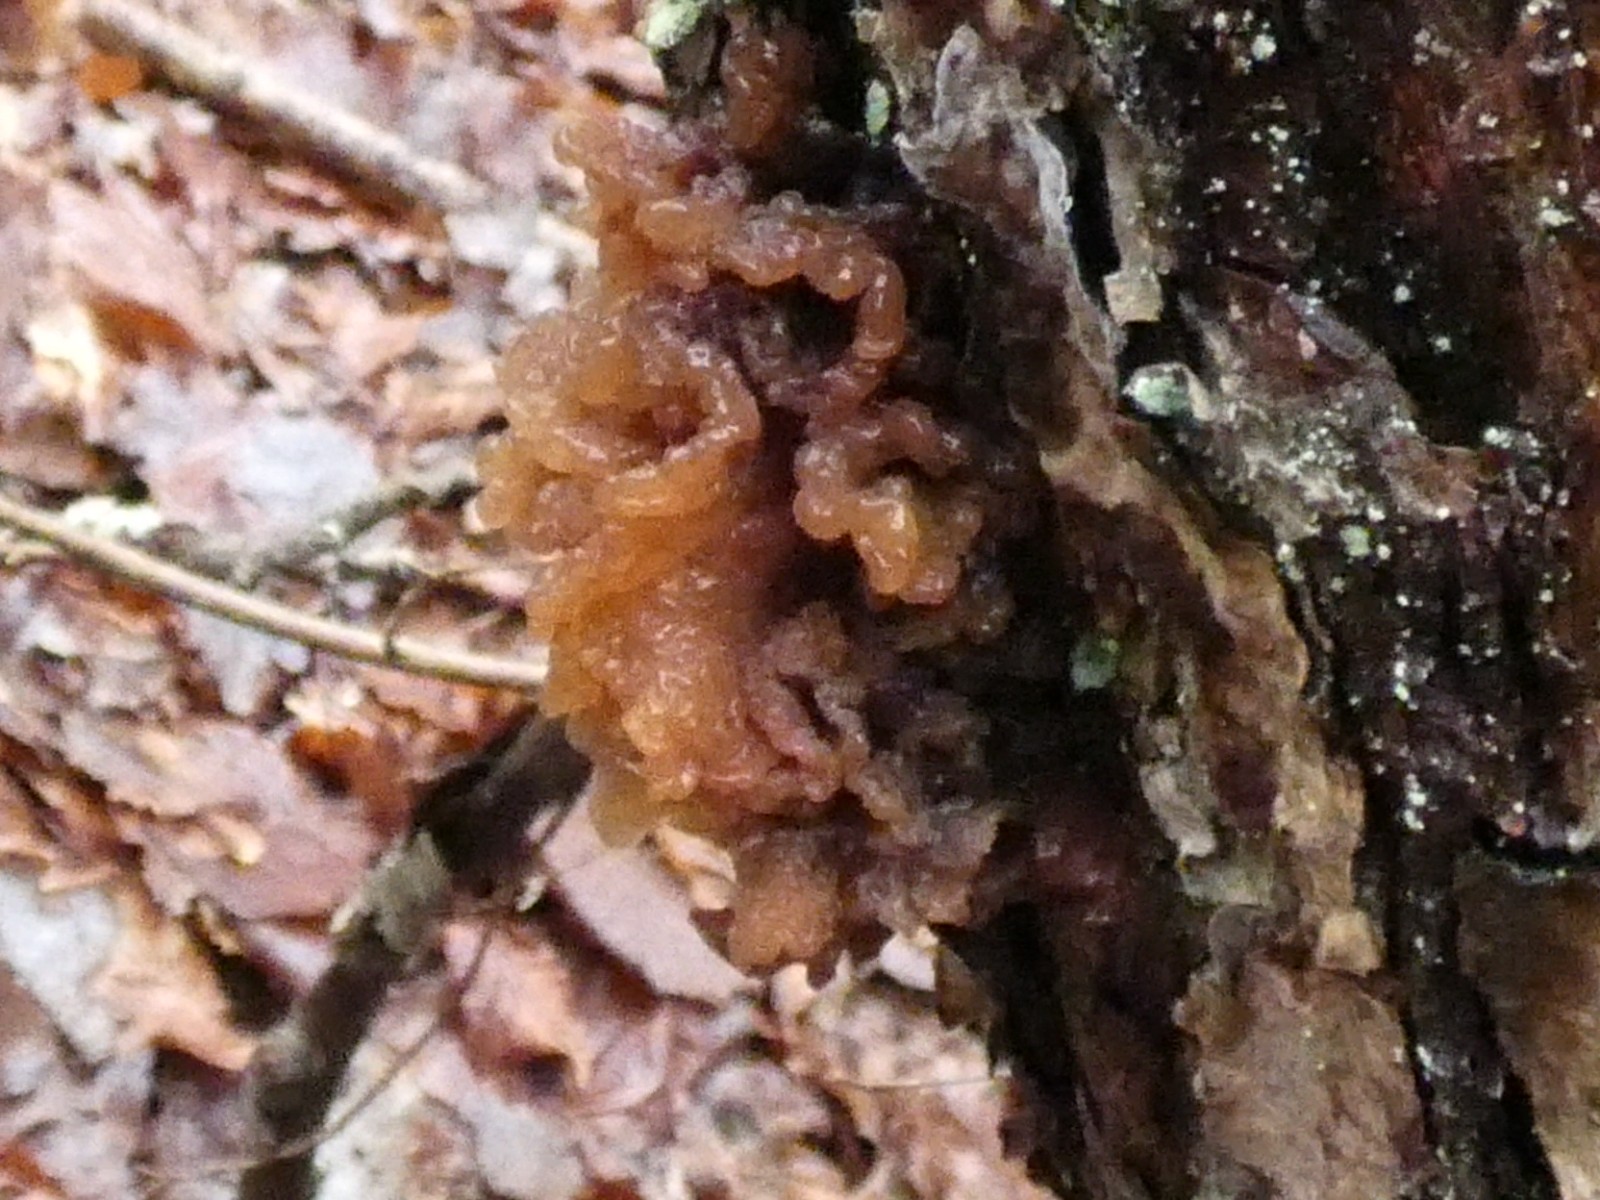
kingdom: Fungi
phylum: Basidiomycota
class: Tremellomycetes
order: Tremellales
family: Tremellaceae
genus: Phaeotremella
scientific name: Phaeotremella frondosa
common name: kæmpe-bævresvamp
